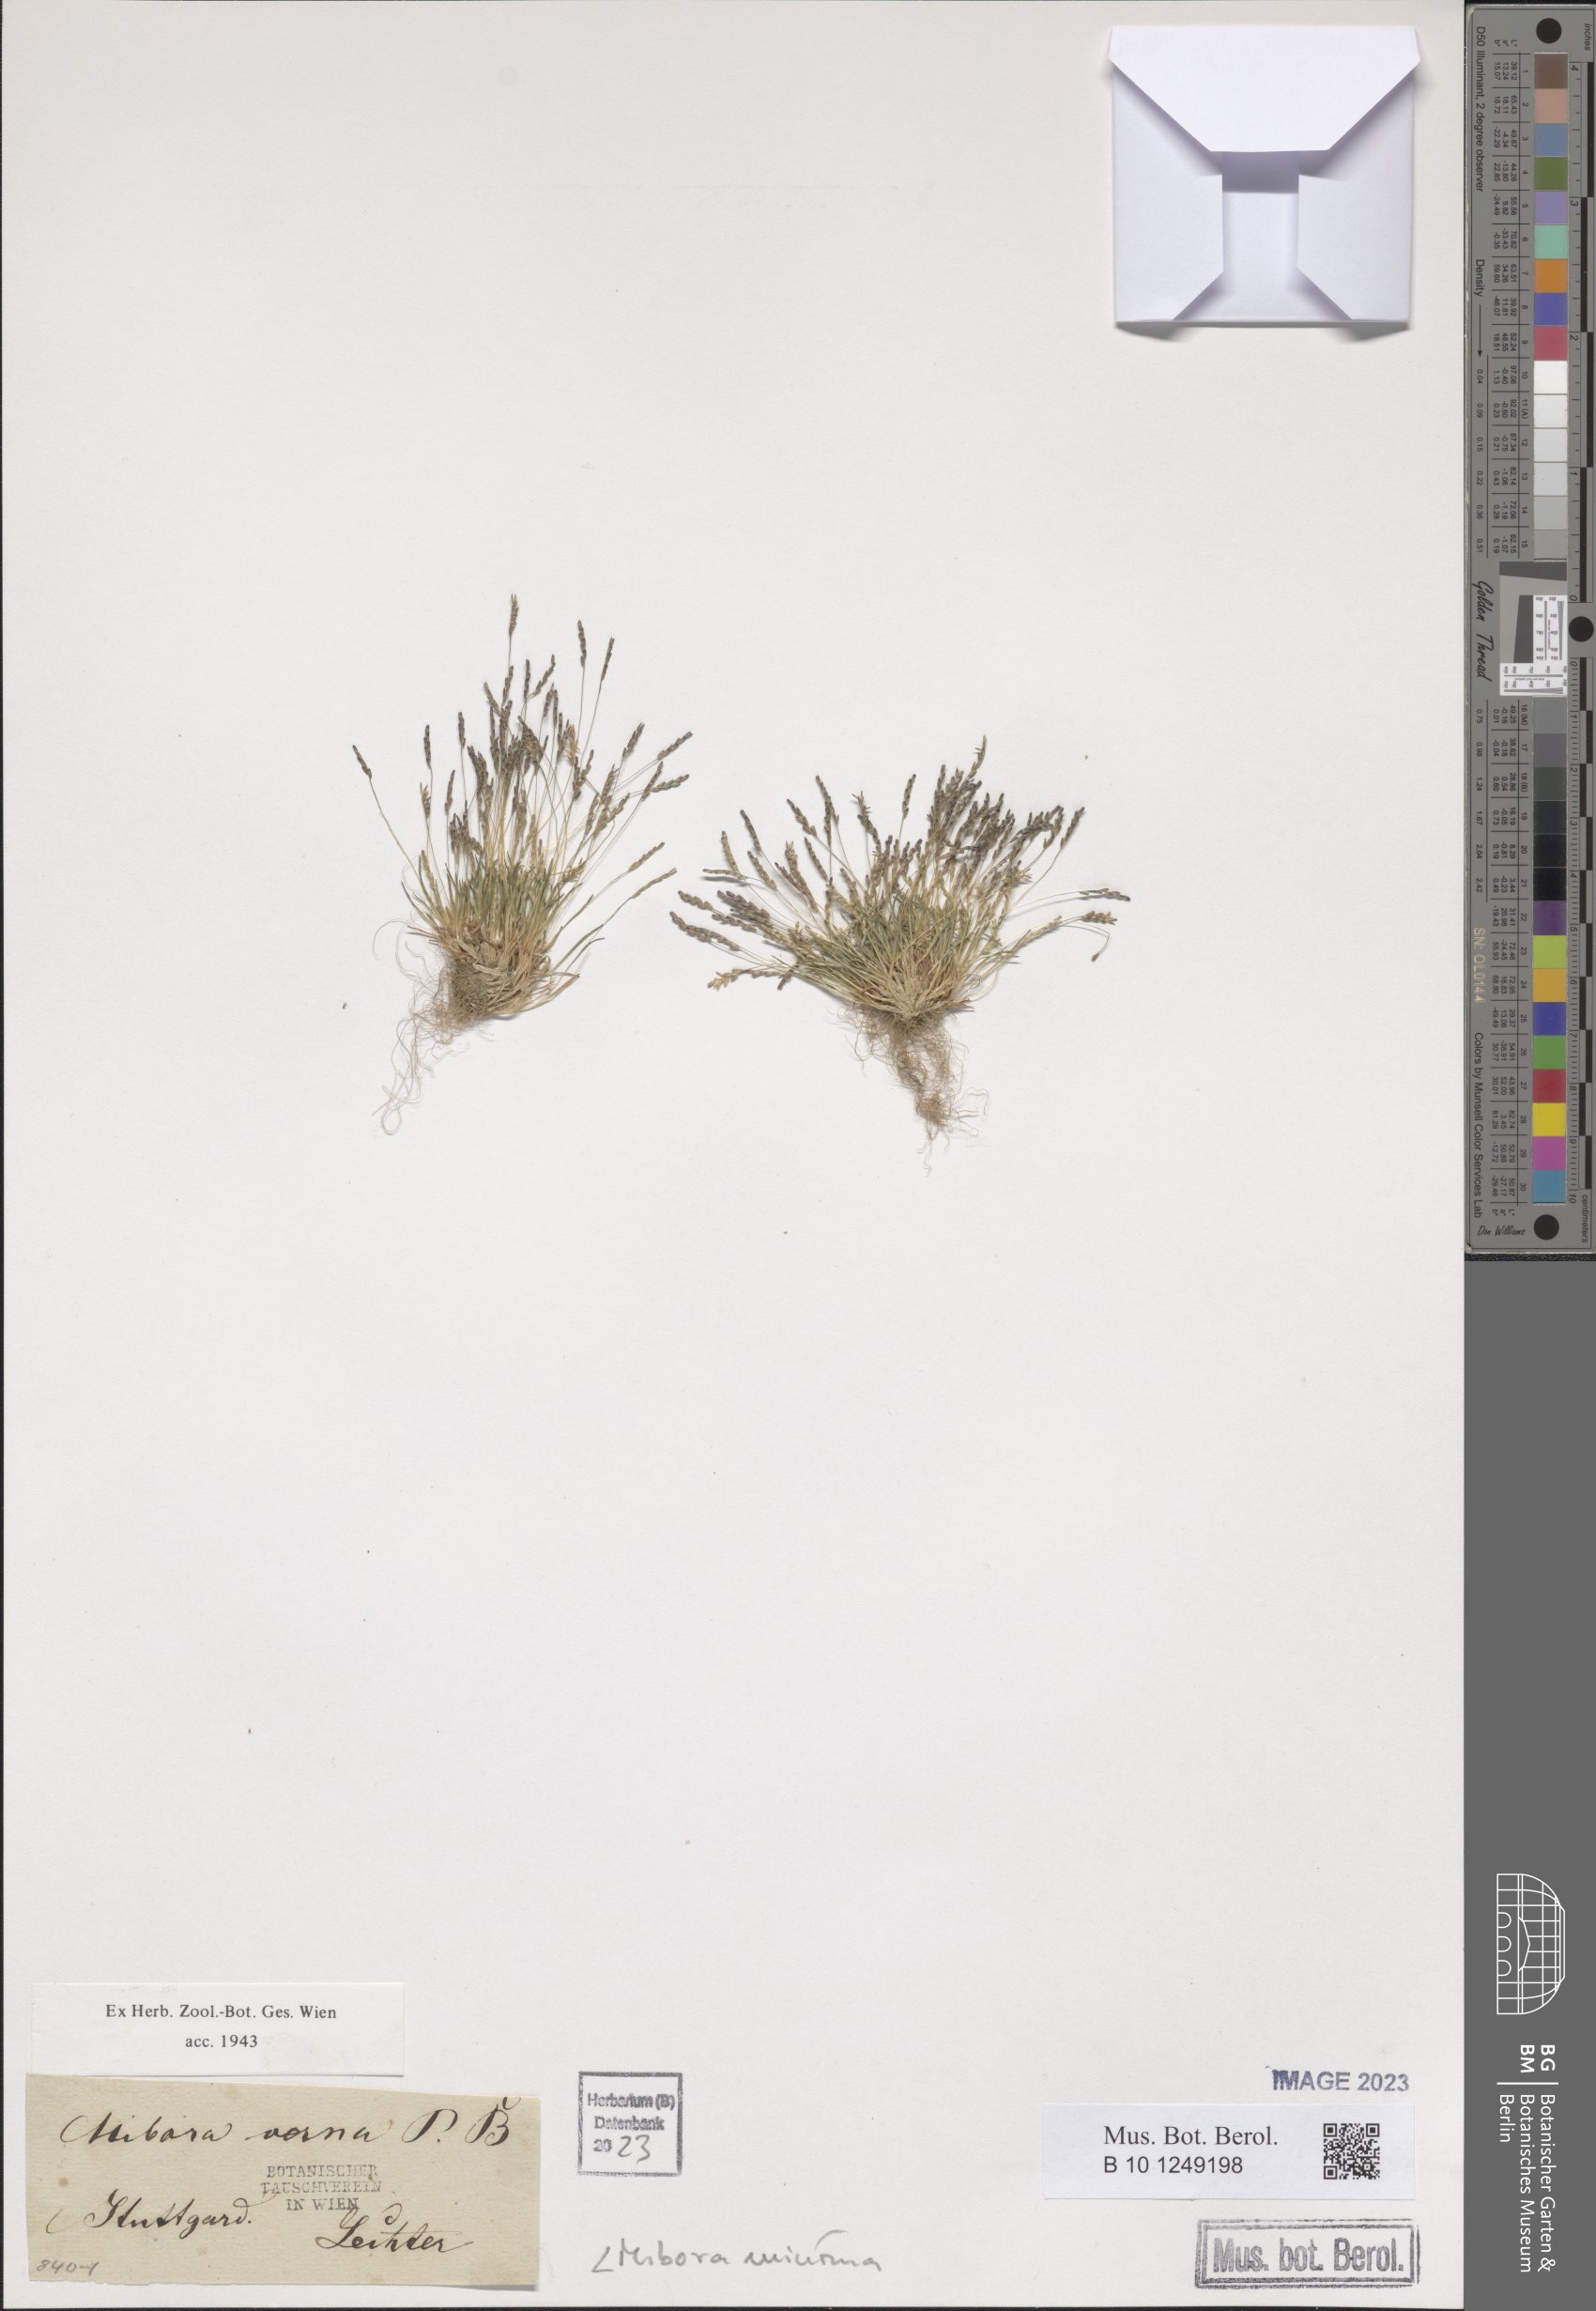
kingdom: Plantae
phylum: Tracheophyta
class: Liliopsida
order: Poales
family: Poaceae
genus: Mibora
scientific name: Mibora minima
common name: Early sand-grass
